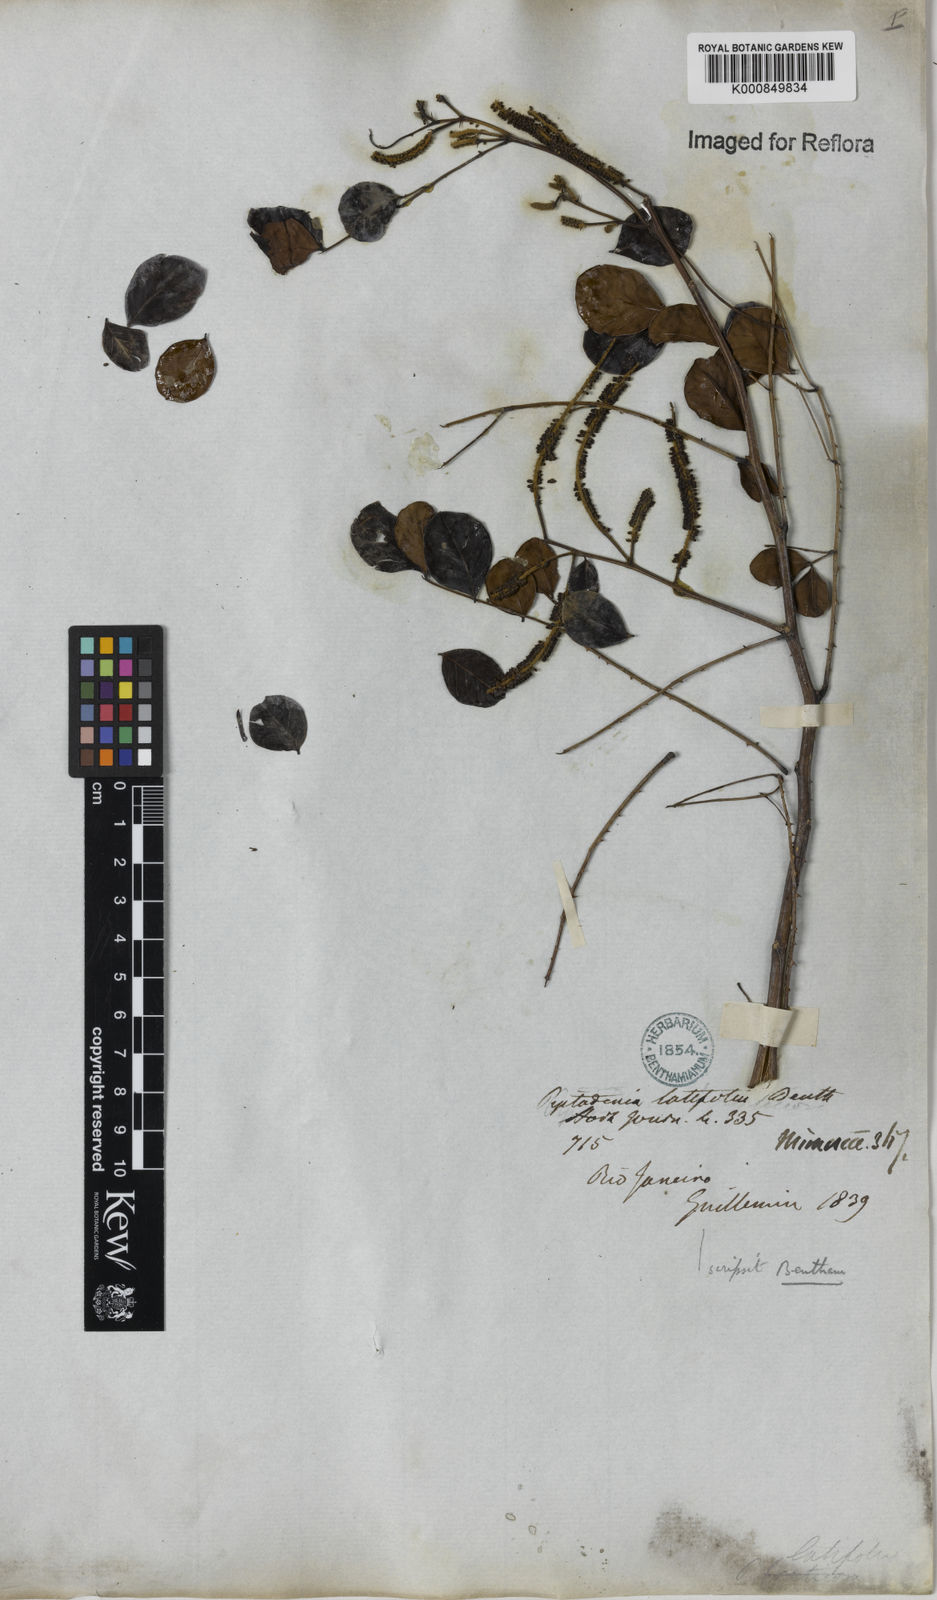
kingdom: Plantae
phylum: Tracheophyta
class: Magnoliopsida
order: Fabales
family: Fabaceae
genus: Piptadenia
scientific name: Piptadenia adiantoides
